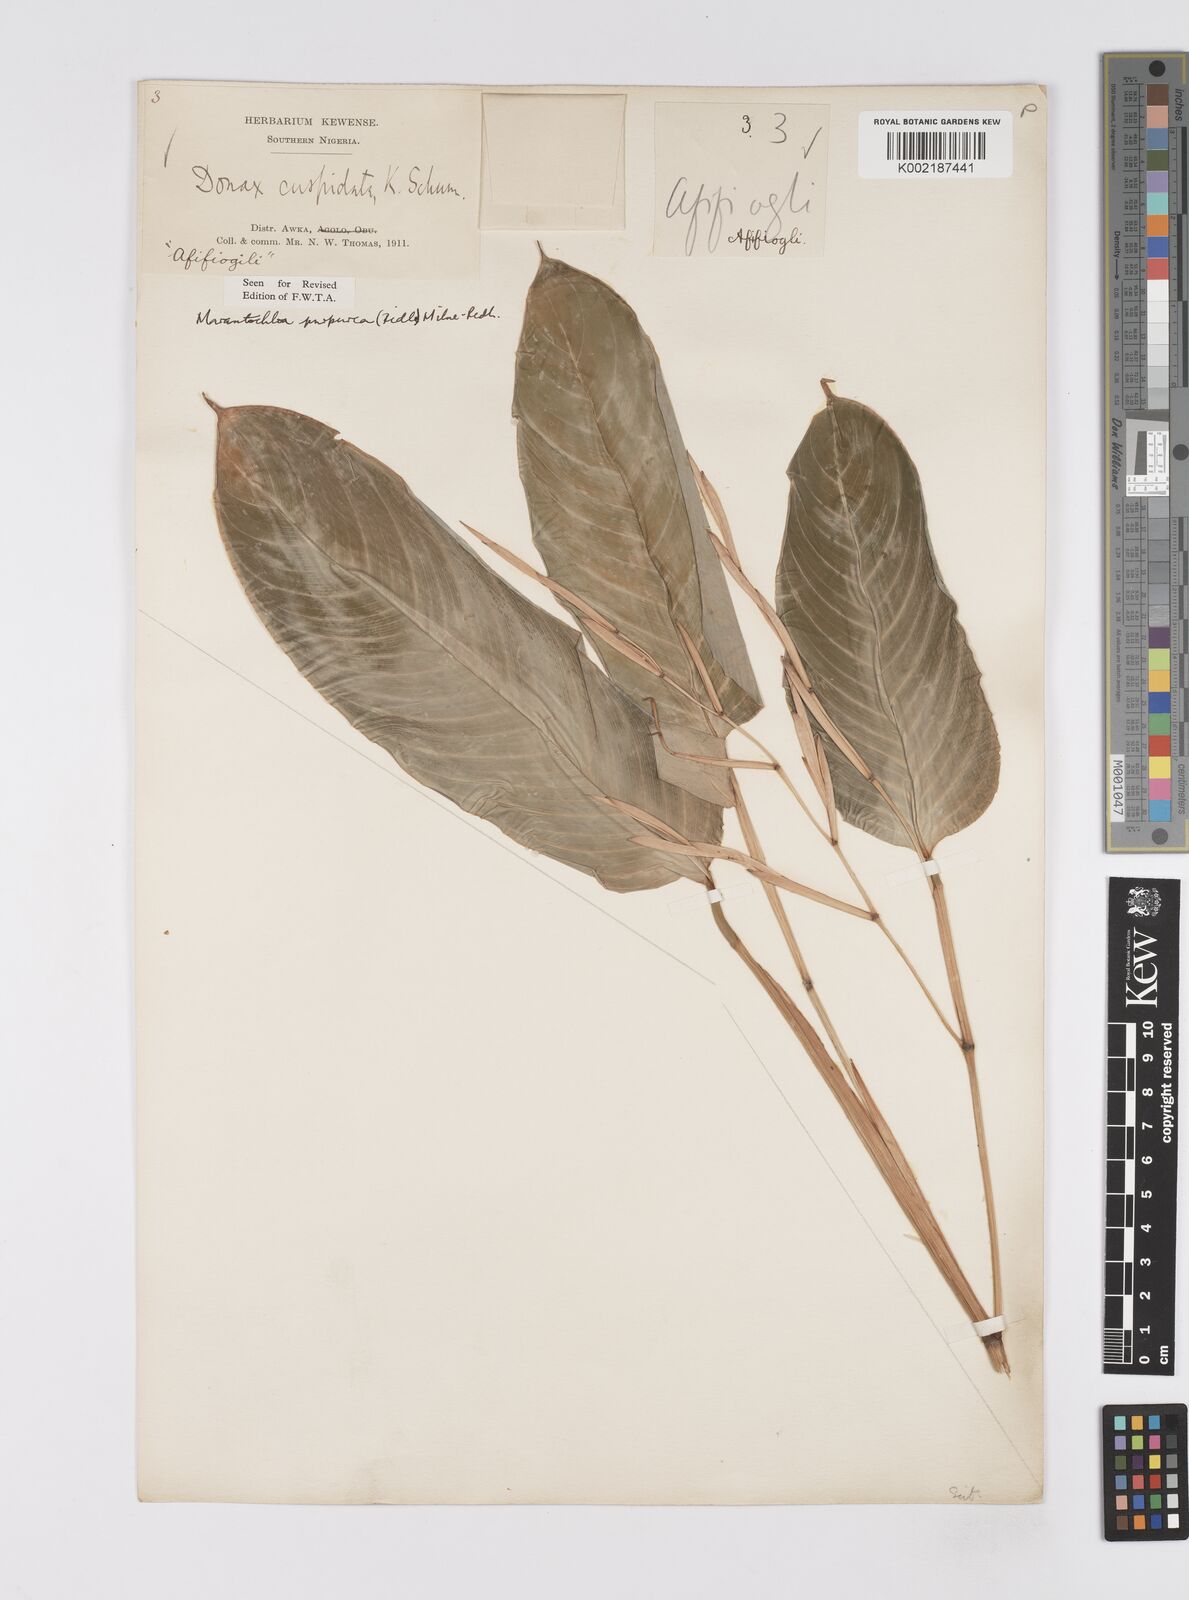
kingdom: Plantae
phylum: Tracheophyta
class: Liliopsida
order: Zingiberales
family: Marantaceae
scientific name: Marantaceae
